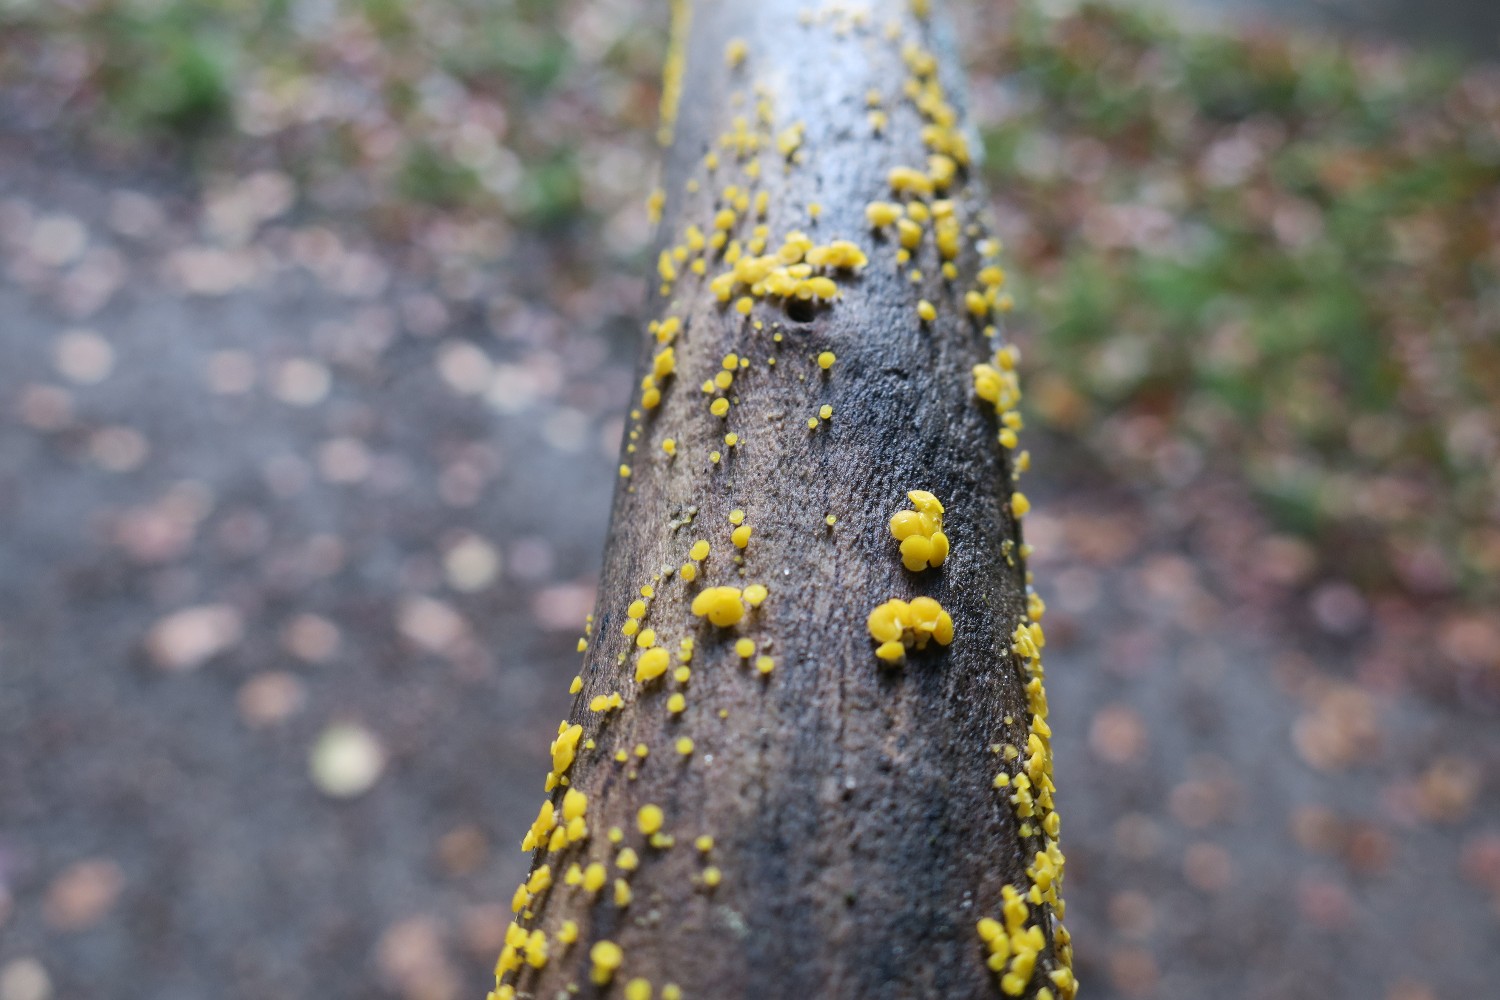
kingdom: Fungi
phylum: Ascomycota
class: Leotiomycetes
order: Helotiales
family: Helotiaceae
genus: Bisporella
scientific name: Bisporella
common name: snitskive
